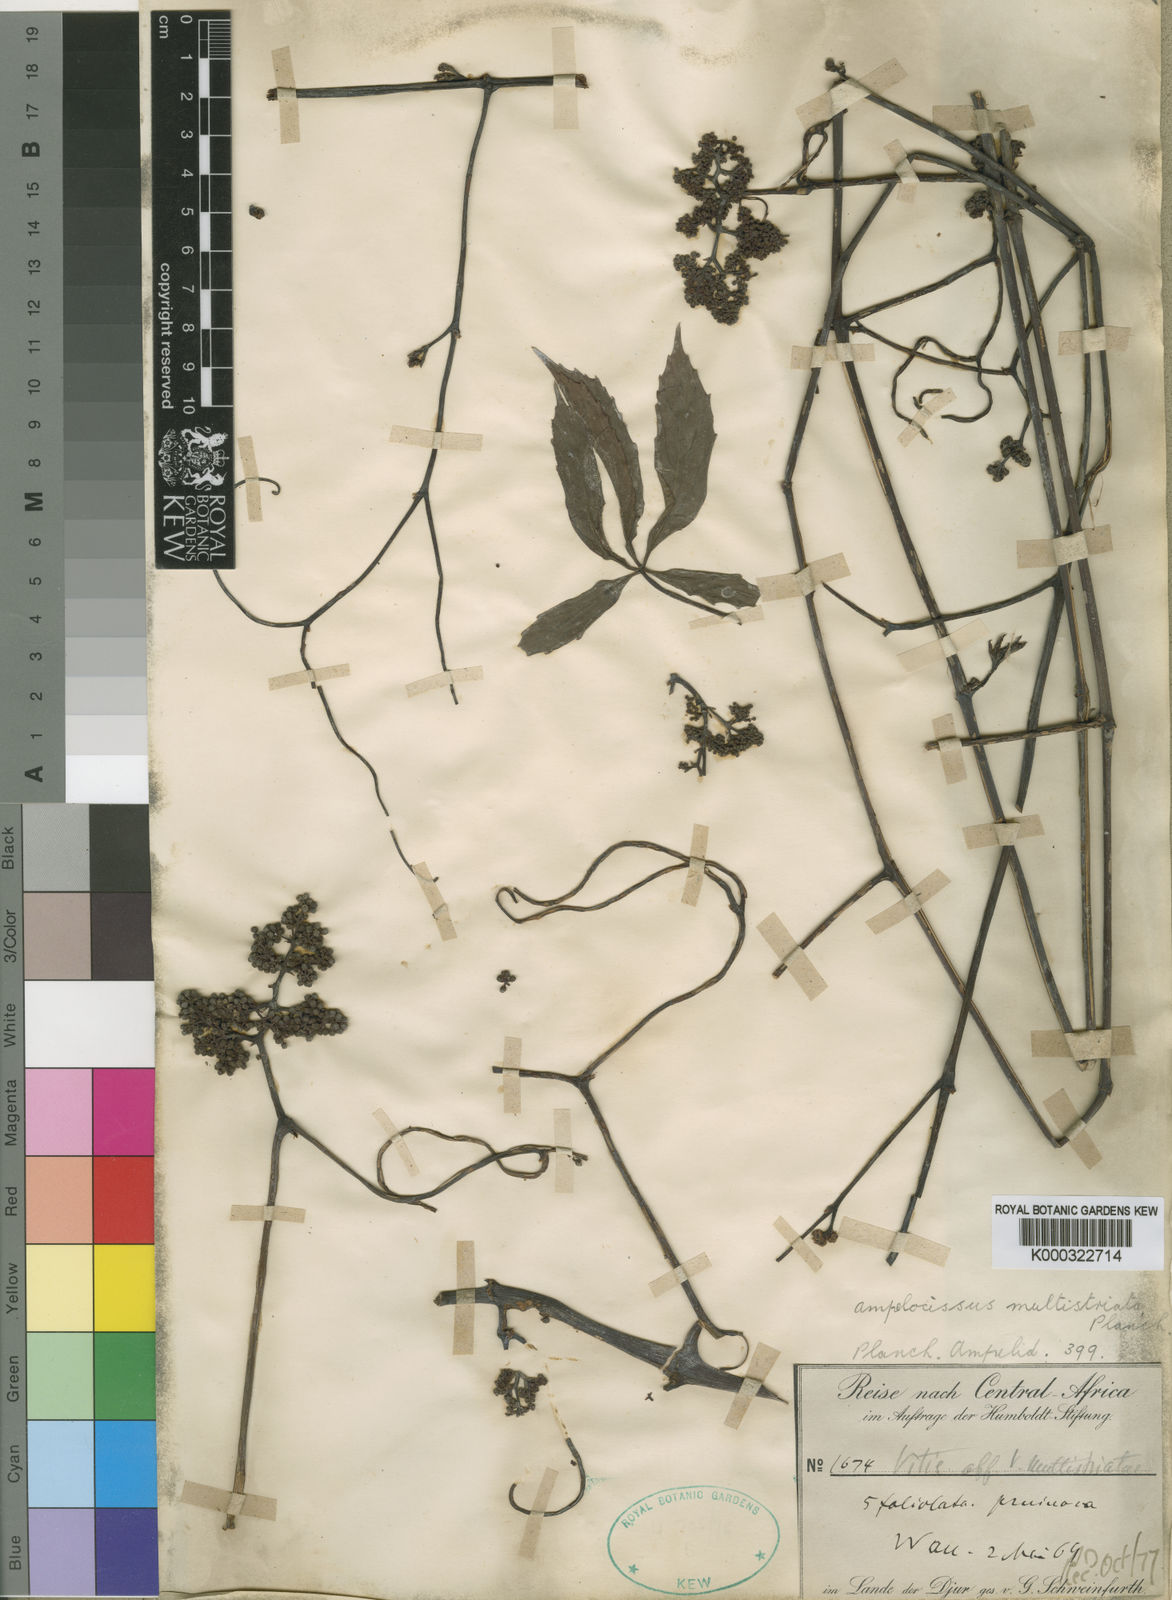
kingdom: Plantae
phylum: Tracheophyta
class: Magnoliopsida
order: Vitales
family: Vitaceae
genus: Ampelocissus
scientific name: Ampelocissus multistriata
